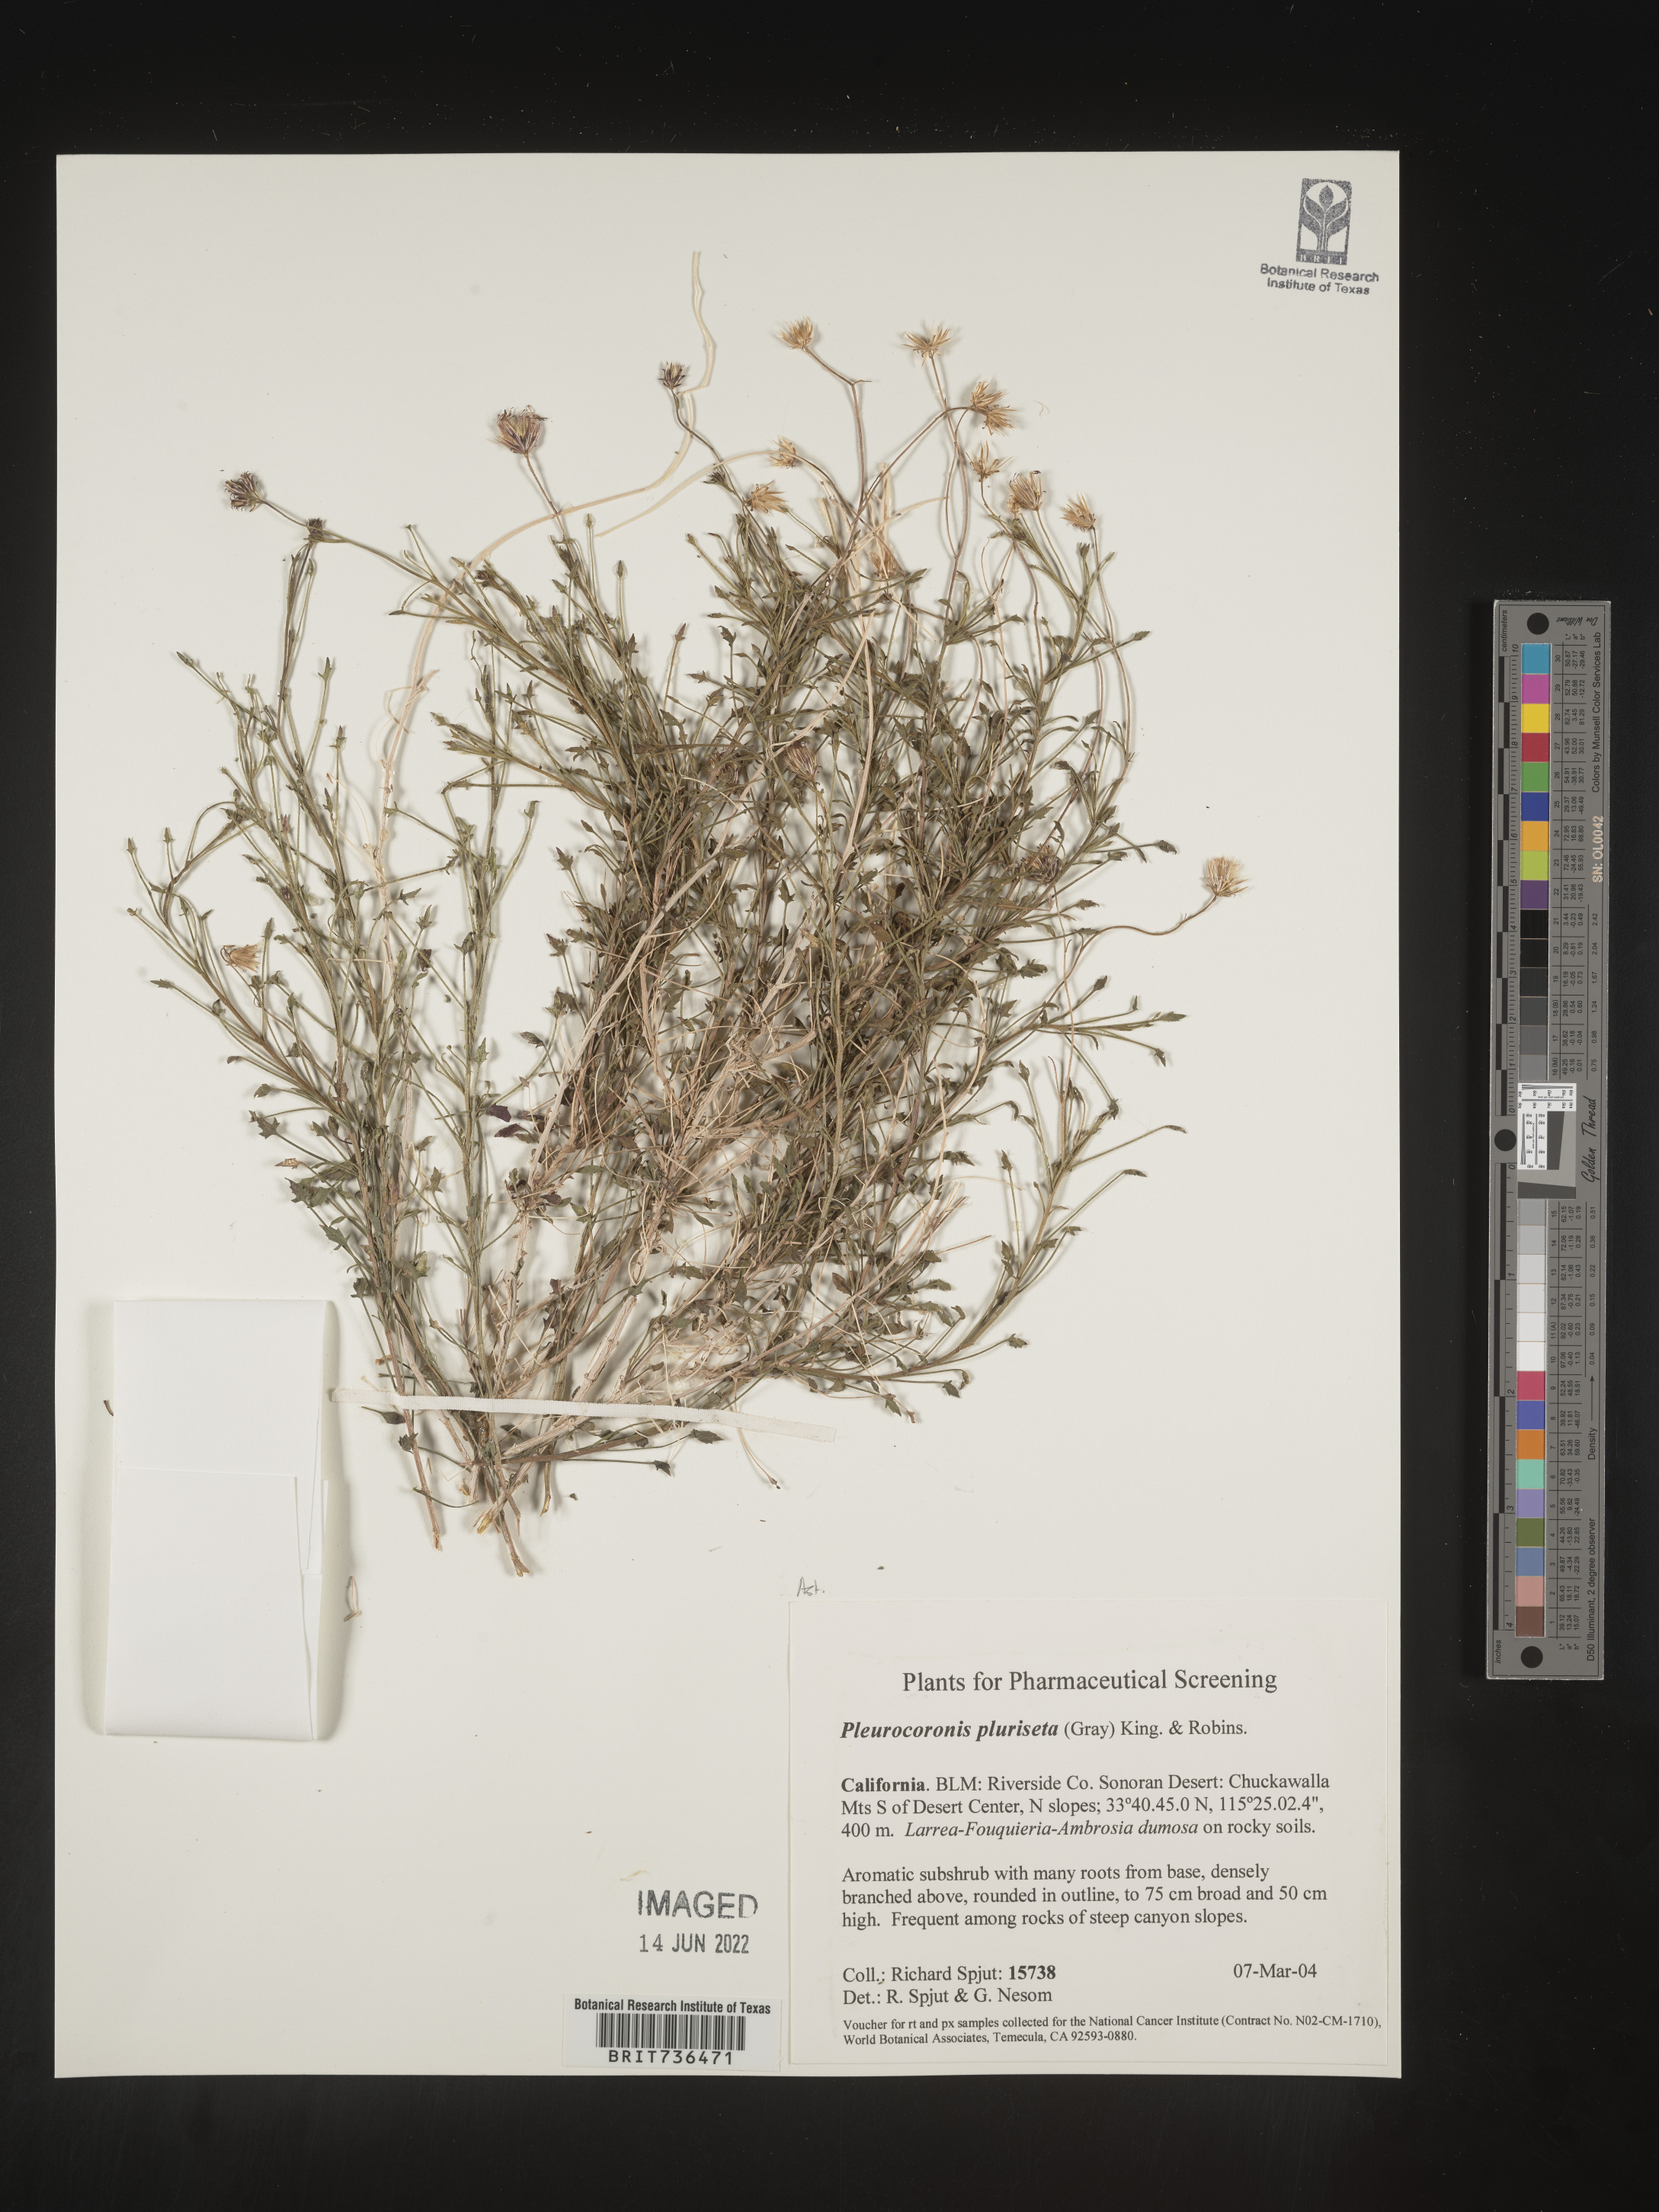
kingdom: Plantae
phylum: Tracheophyta
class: Magnoliopsida
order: Asterales
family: Asteraceae
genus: Pleurocoronis
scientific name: Pleurocoronis
